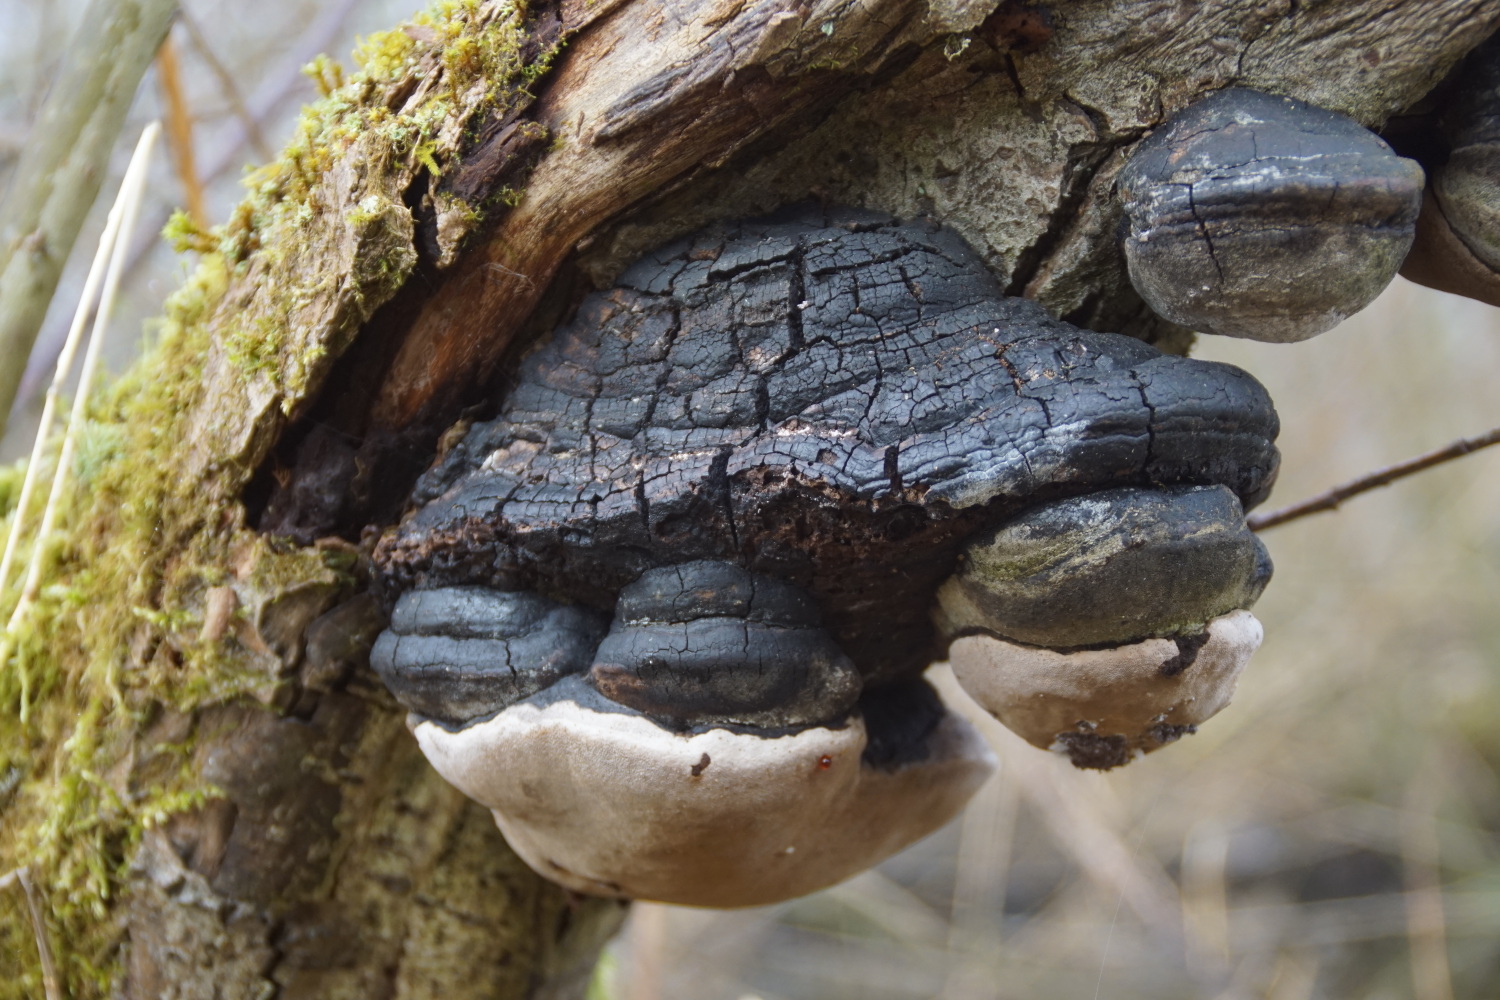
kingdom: Fungi
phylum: Basidiomycota
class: Agaricomycetes
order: Hymenochaetales
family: Hymenochaetaceae
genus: Phellinus
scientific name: Phellinus igniarius
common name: almindelig ildporesvamp
